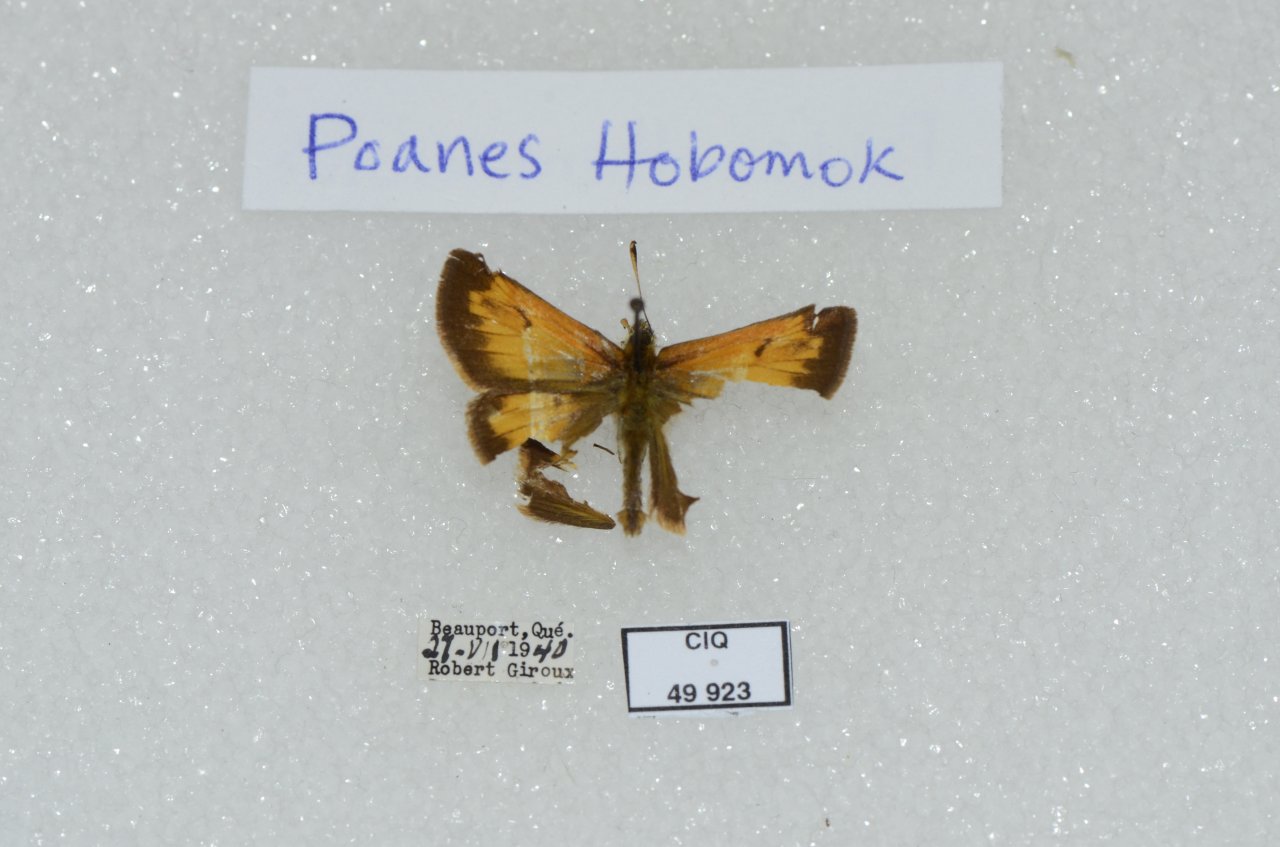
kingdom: Animalia
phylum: Arthropoda
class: Insecta
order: Lepidoptera
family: Hesperiidae
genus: Lon
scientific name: Lon hobomok
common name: Hobomok Skipper
